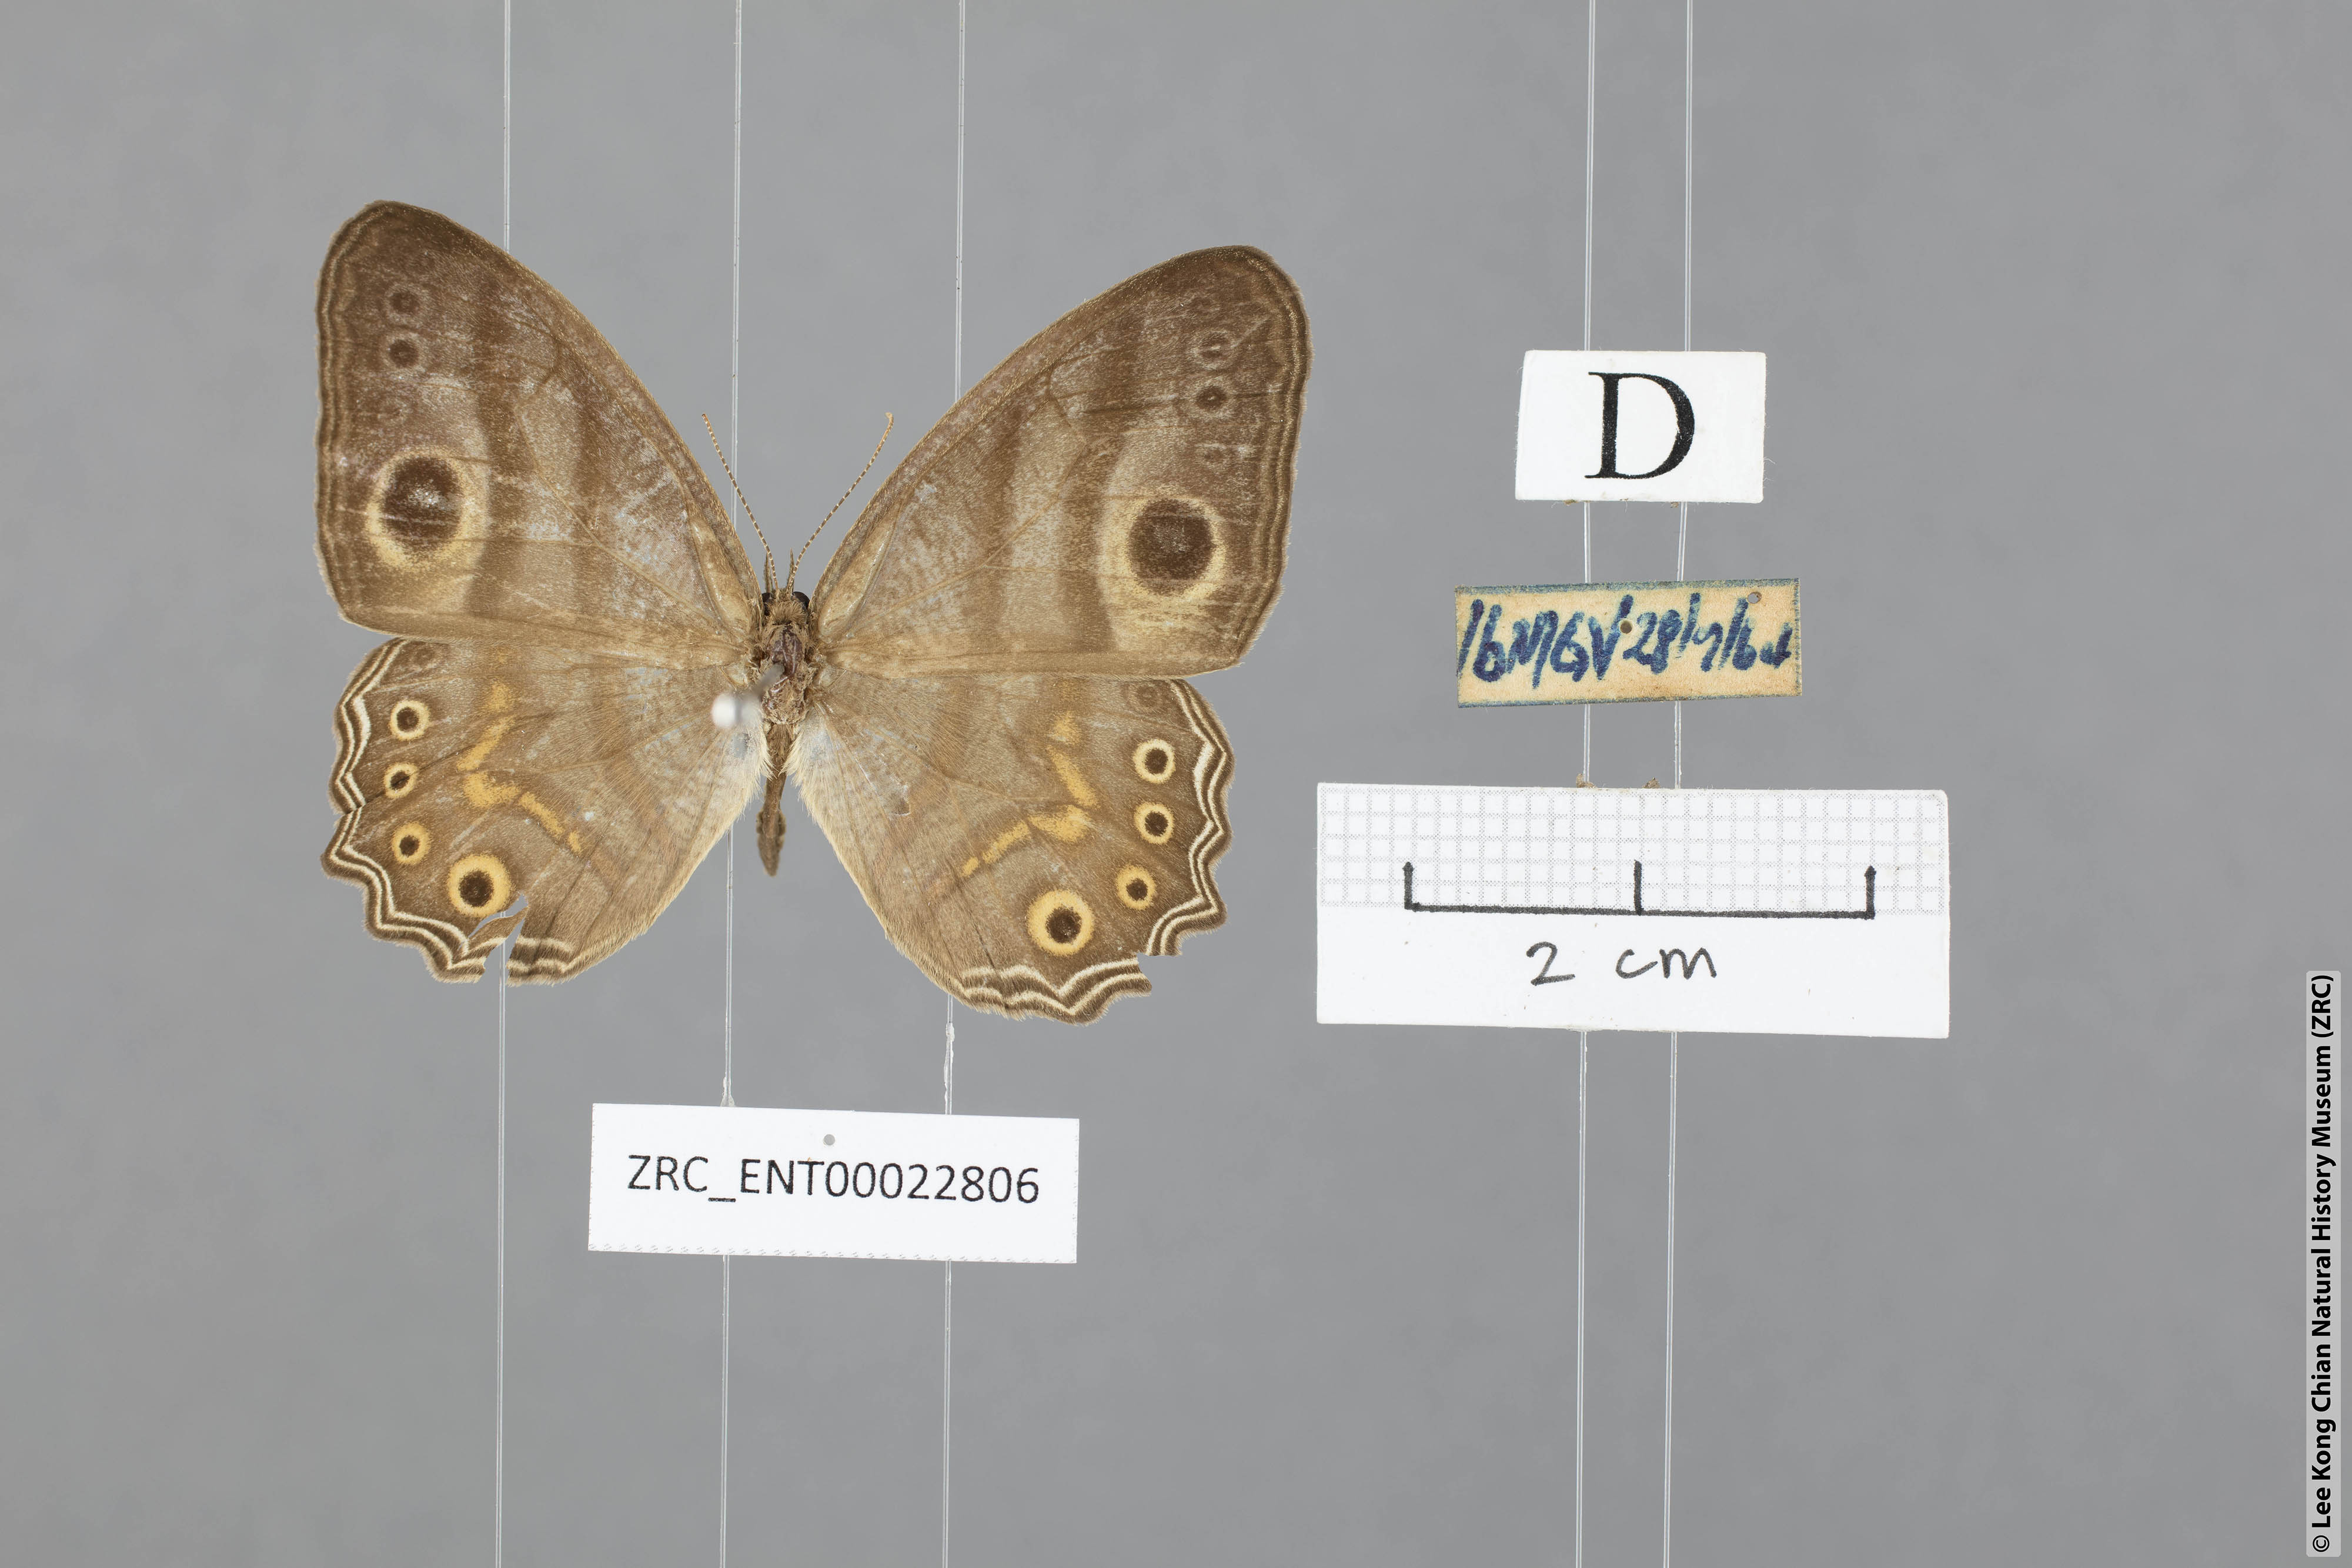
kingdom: Animalia
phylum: Arthropoda
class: Insecta
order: Lepidoptera
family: Nymphalidae
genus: Erites
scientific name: Erites argentina
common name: Eyed cyclops
